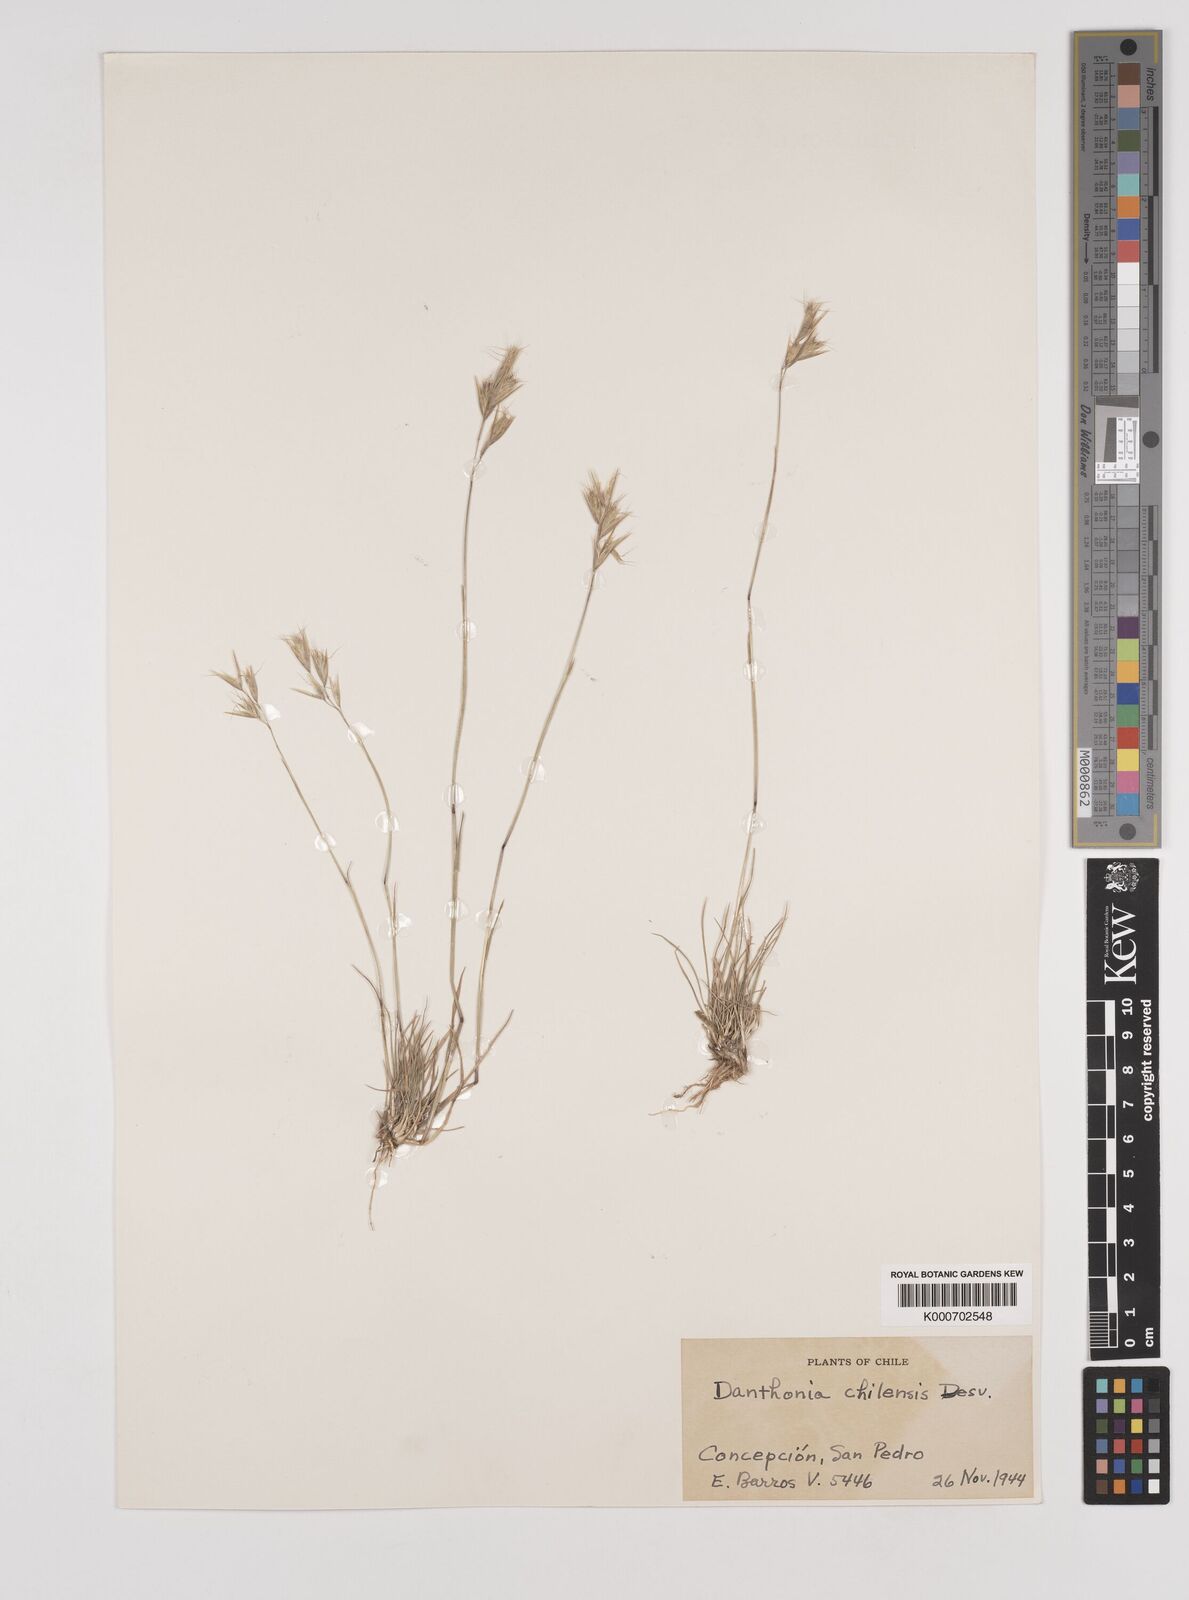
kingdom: Plantae
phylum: Tracheophyta
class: Liliopsida
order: Poales
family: Poaceae
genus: Danthonia
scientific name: Danthonia
